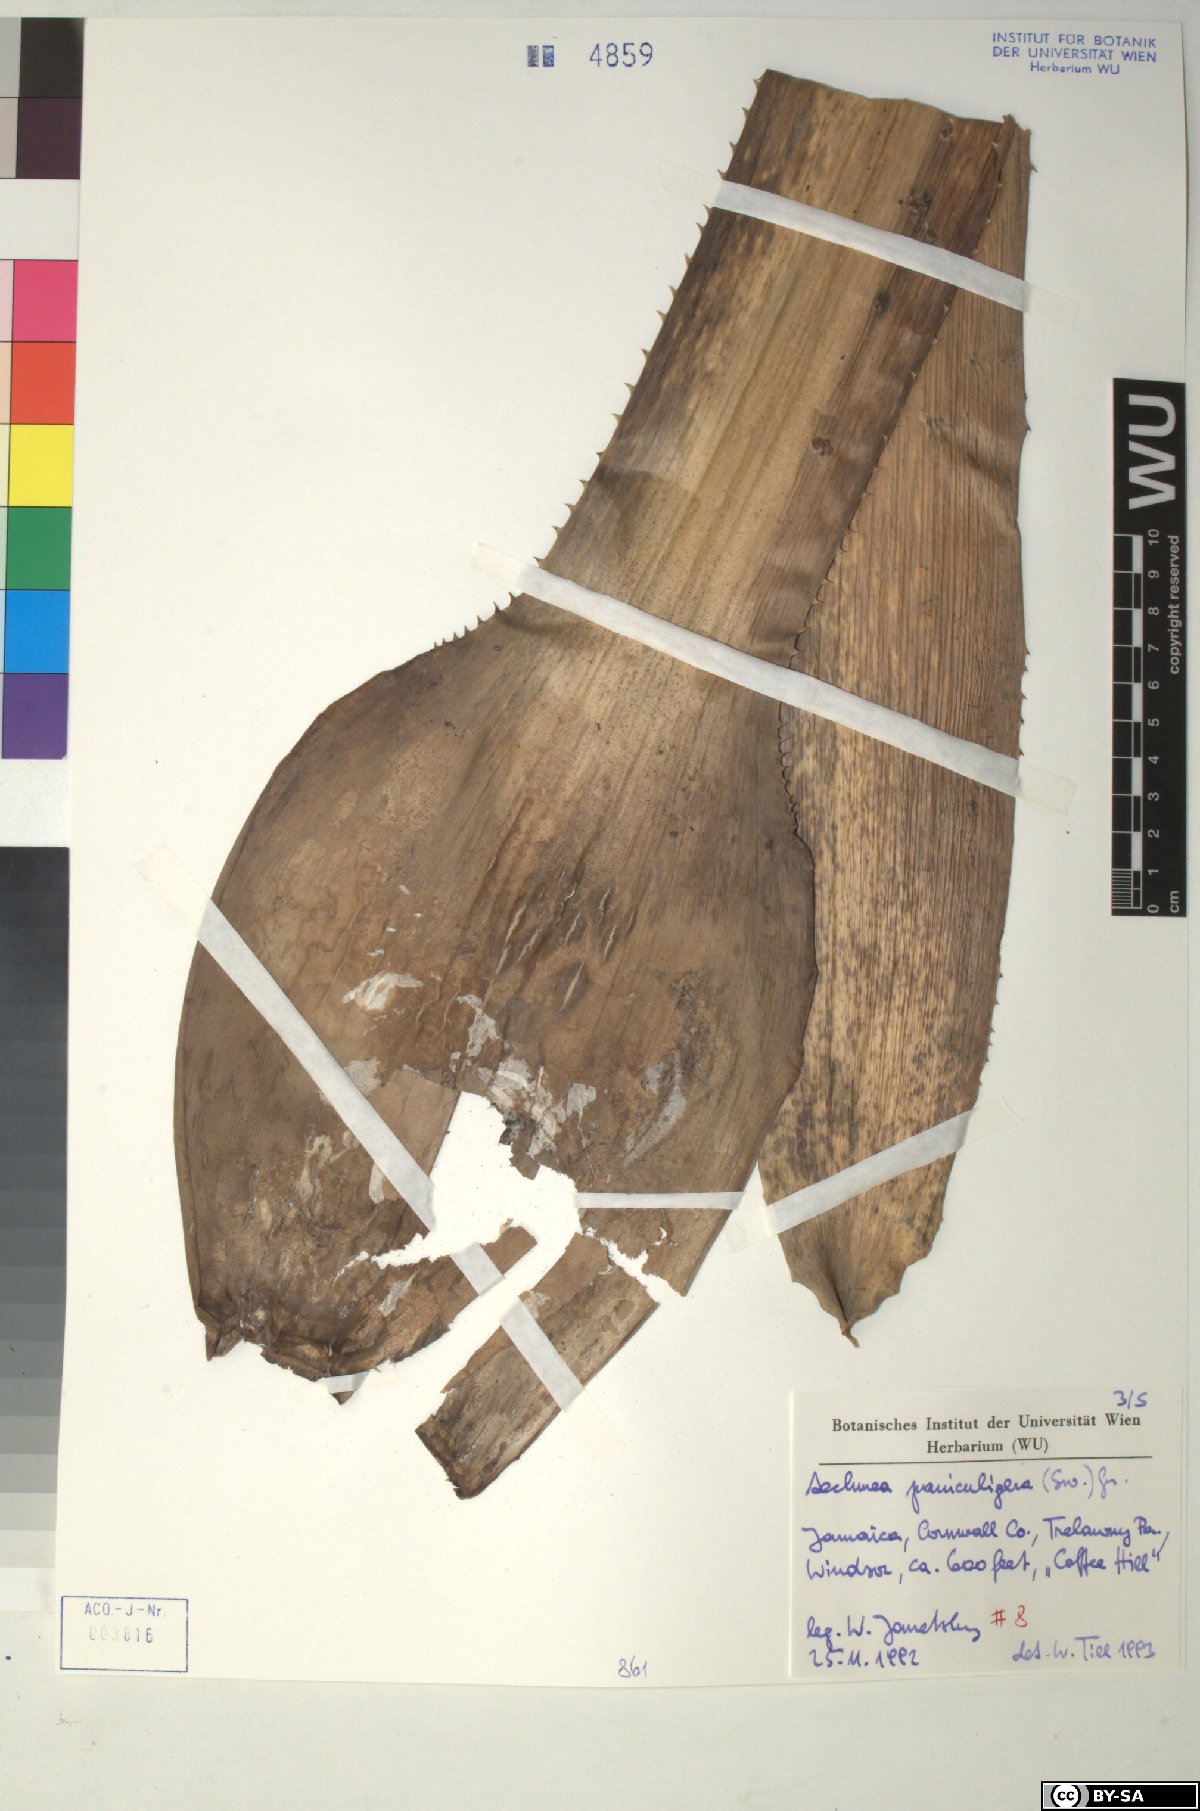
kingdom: Plantae
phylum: Tracheophyta
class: Liliopsida
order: Poales
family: Bromeliaceae
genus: Aechmea
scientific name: Aechmea paniculigera
